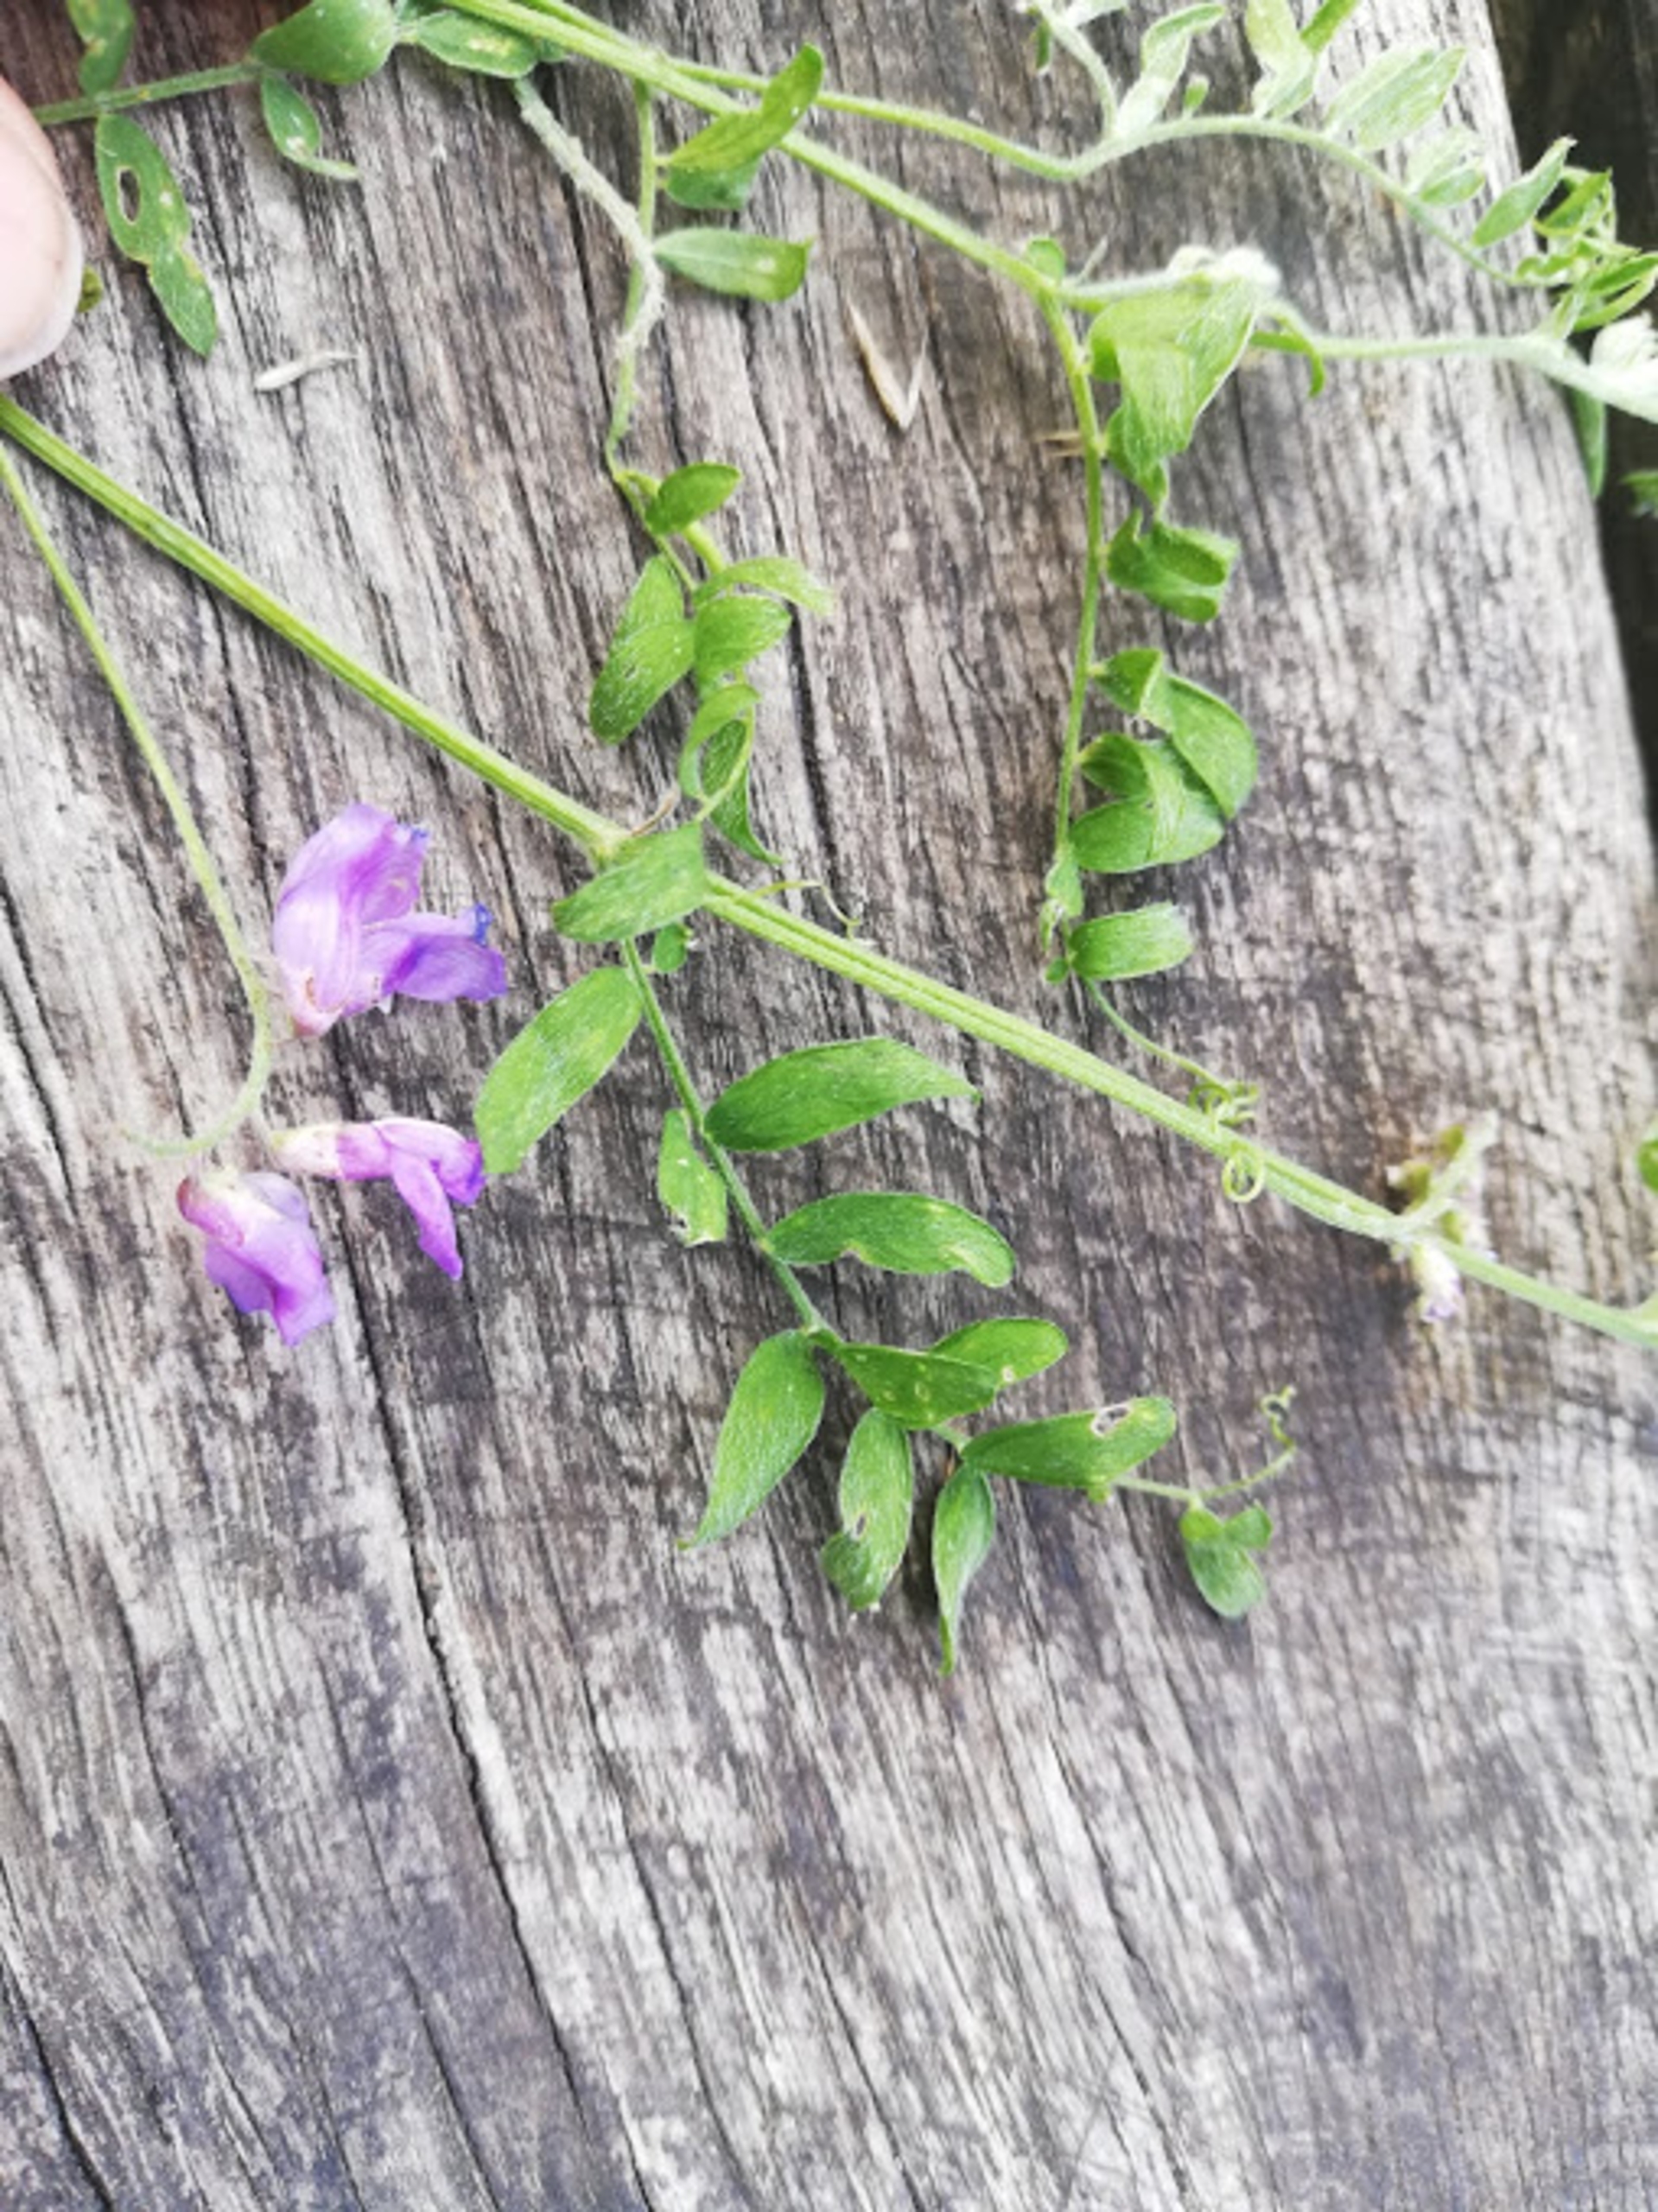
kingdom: Plantae
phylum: Tracheophyta
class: Magnoliopsida
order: Fabales
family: Fabaceae
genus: Vicia
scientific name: Vicia cracca
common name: Muse-vikke
